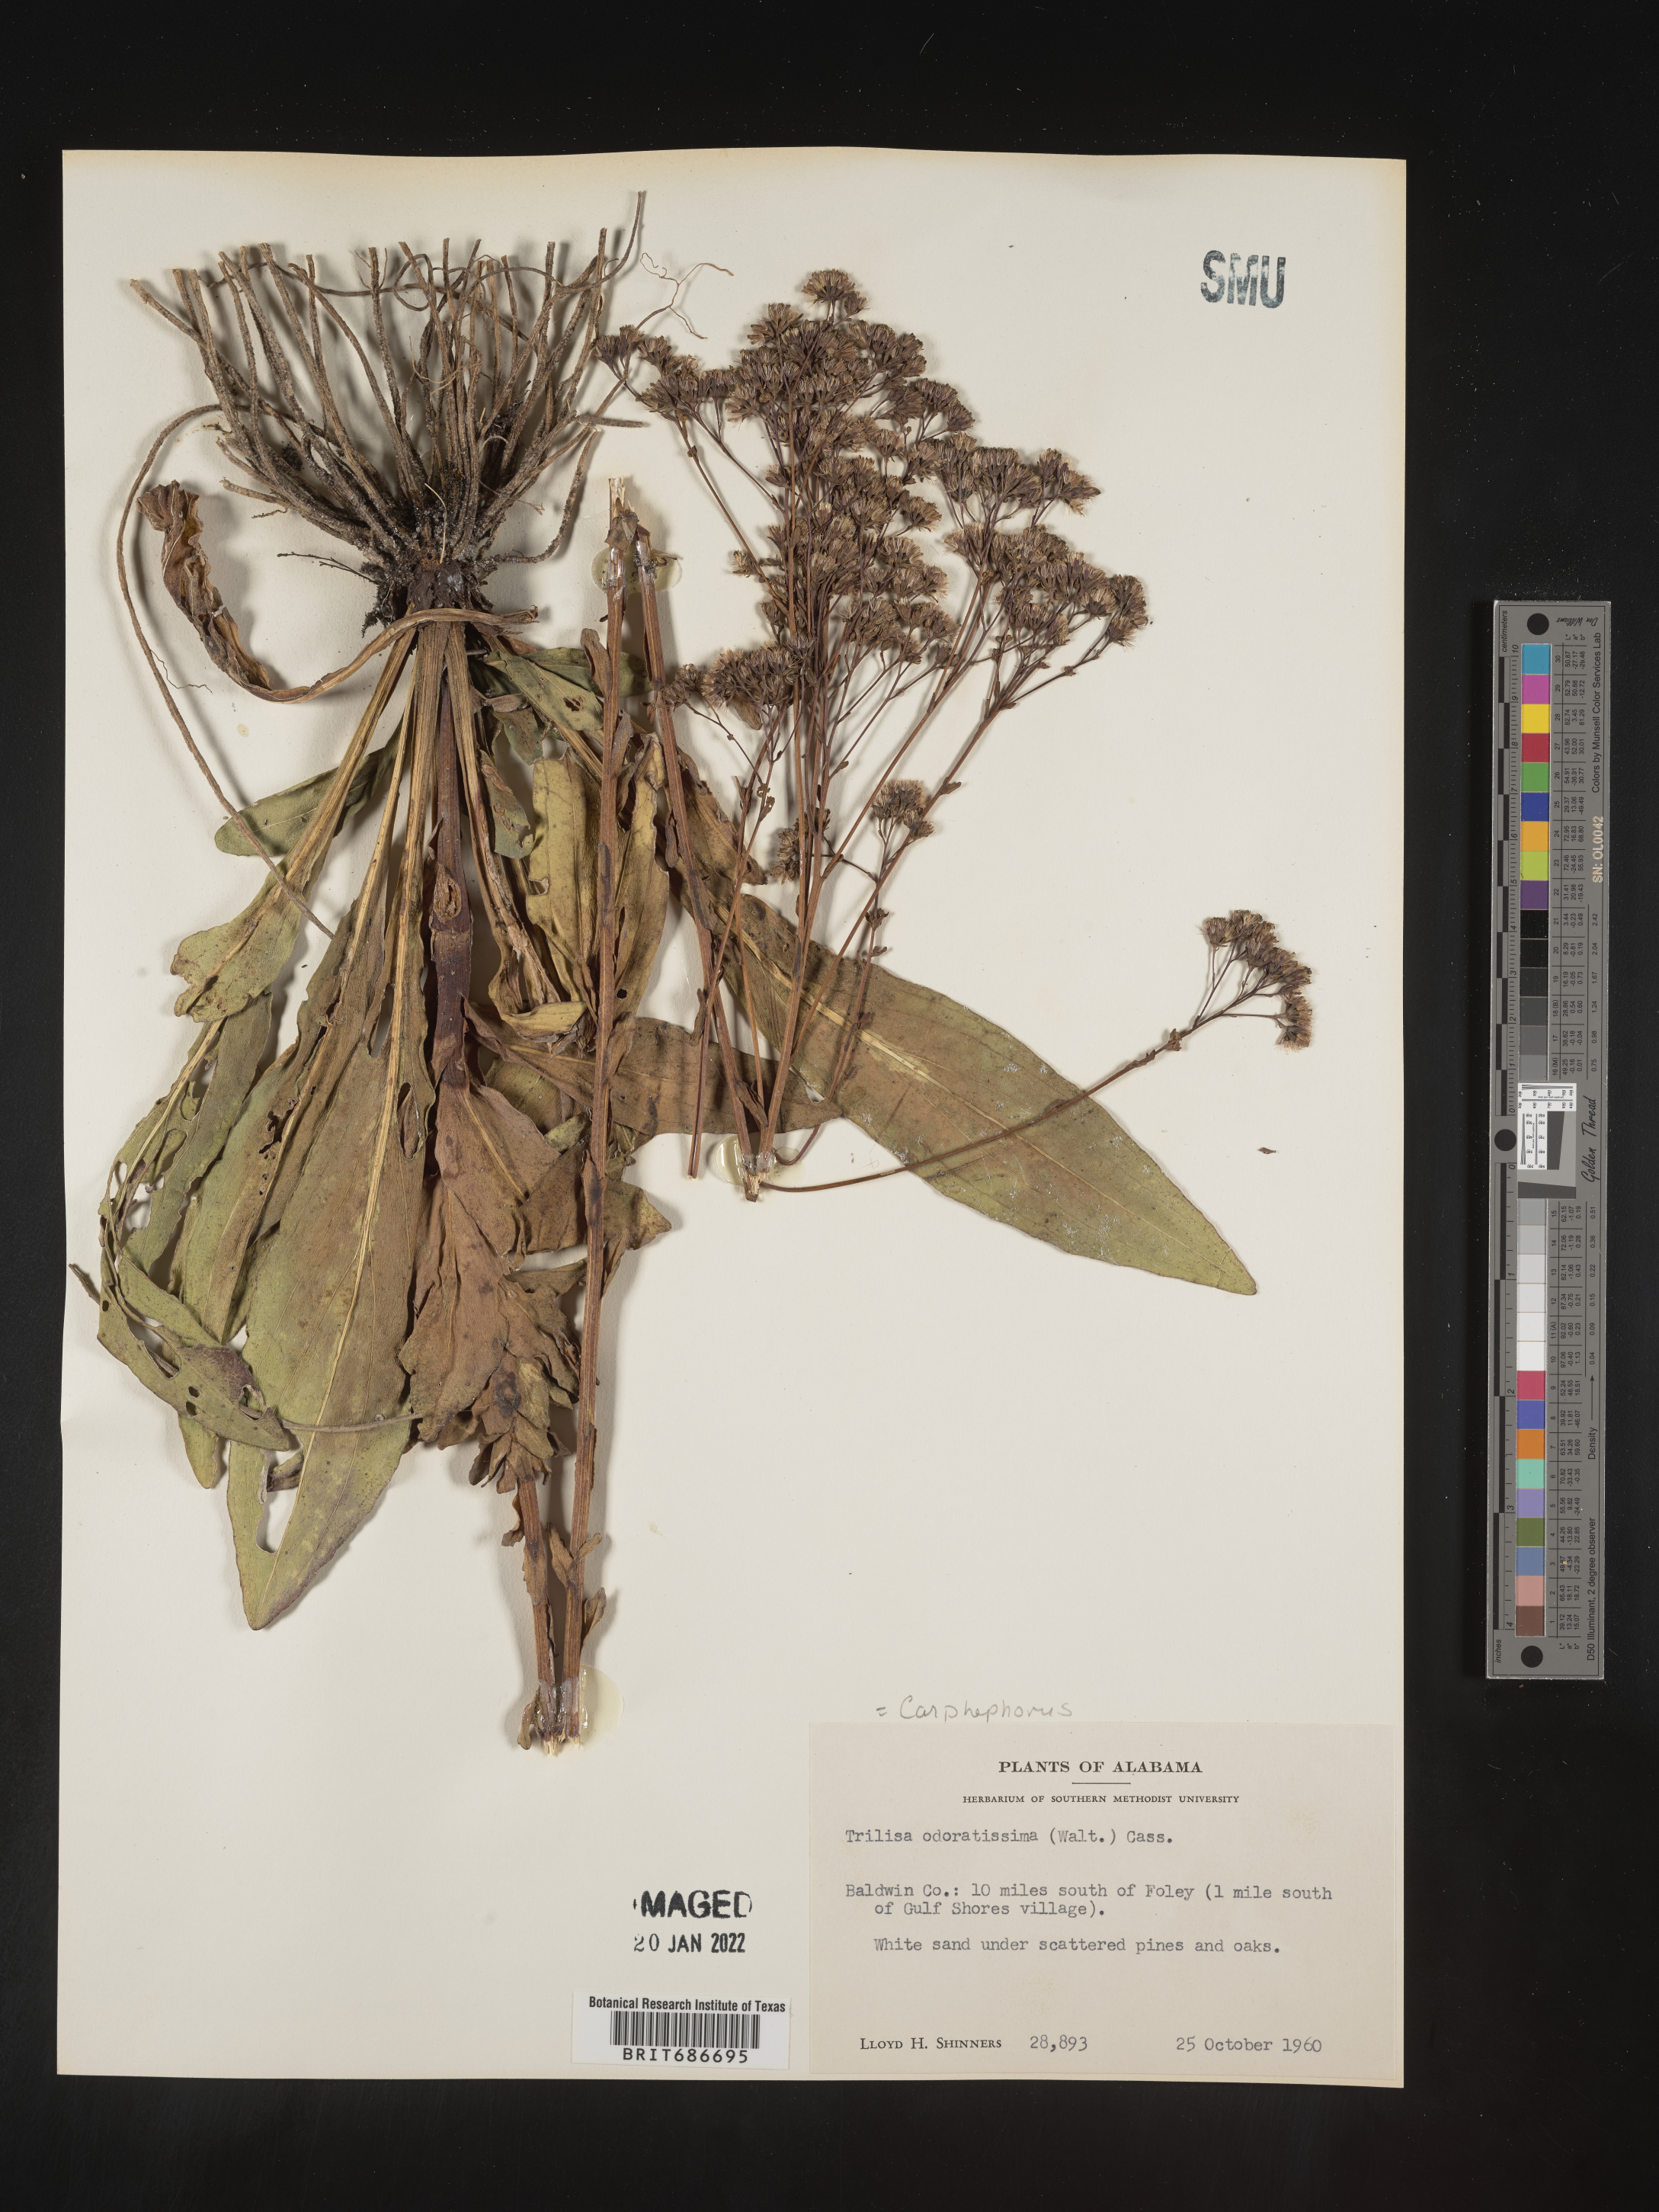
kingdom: Plantae
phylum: Tracheophyta
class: Magnoliopsida
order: Asterales
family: Asteraceae
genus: Carphephorus
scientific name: Carphephorus odoratissimus
